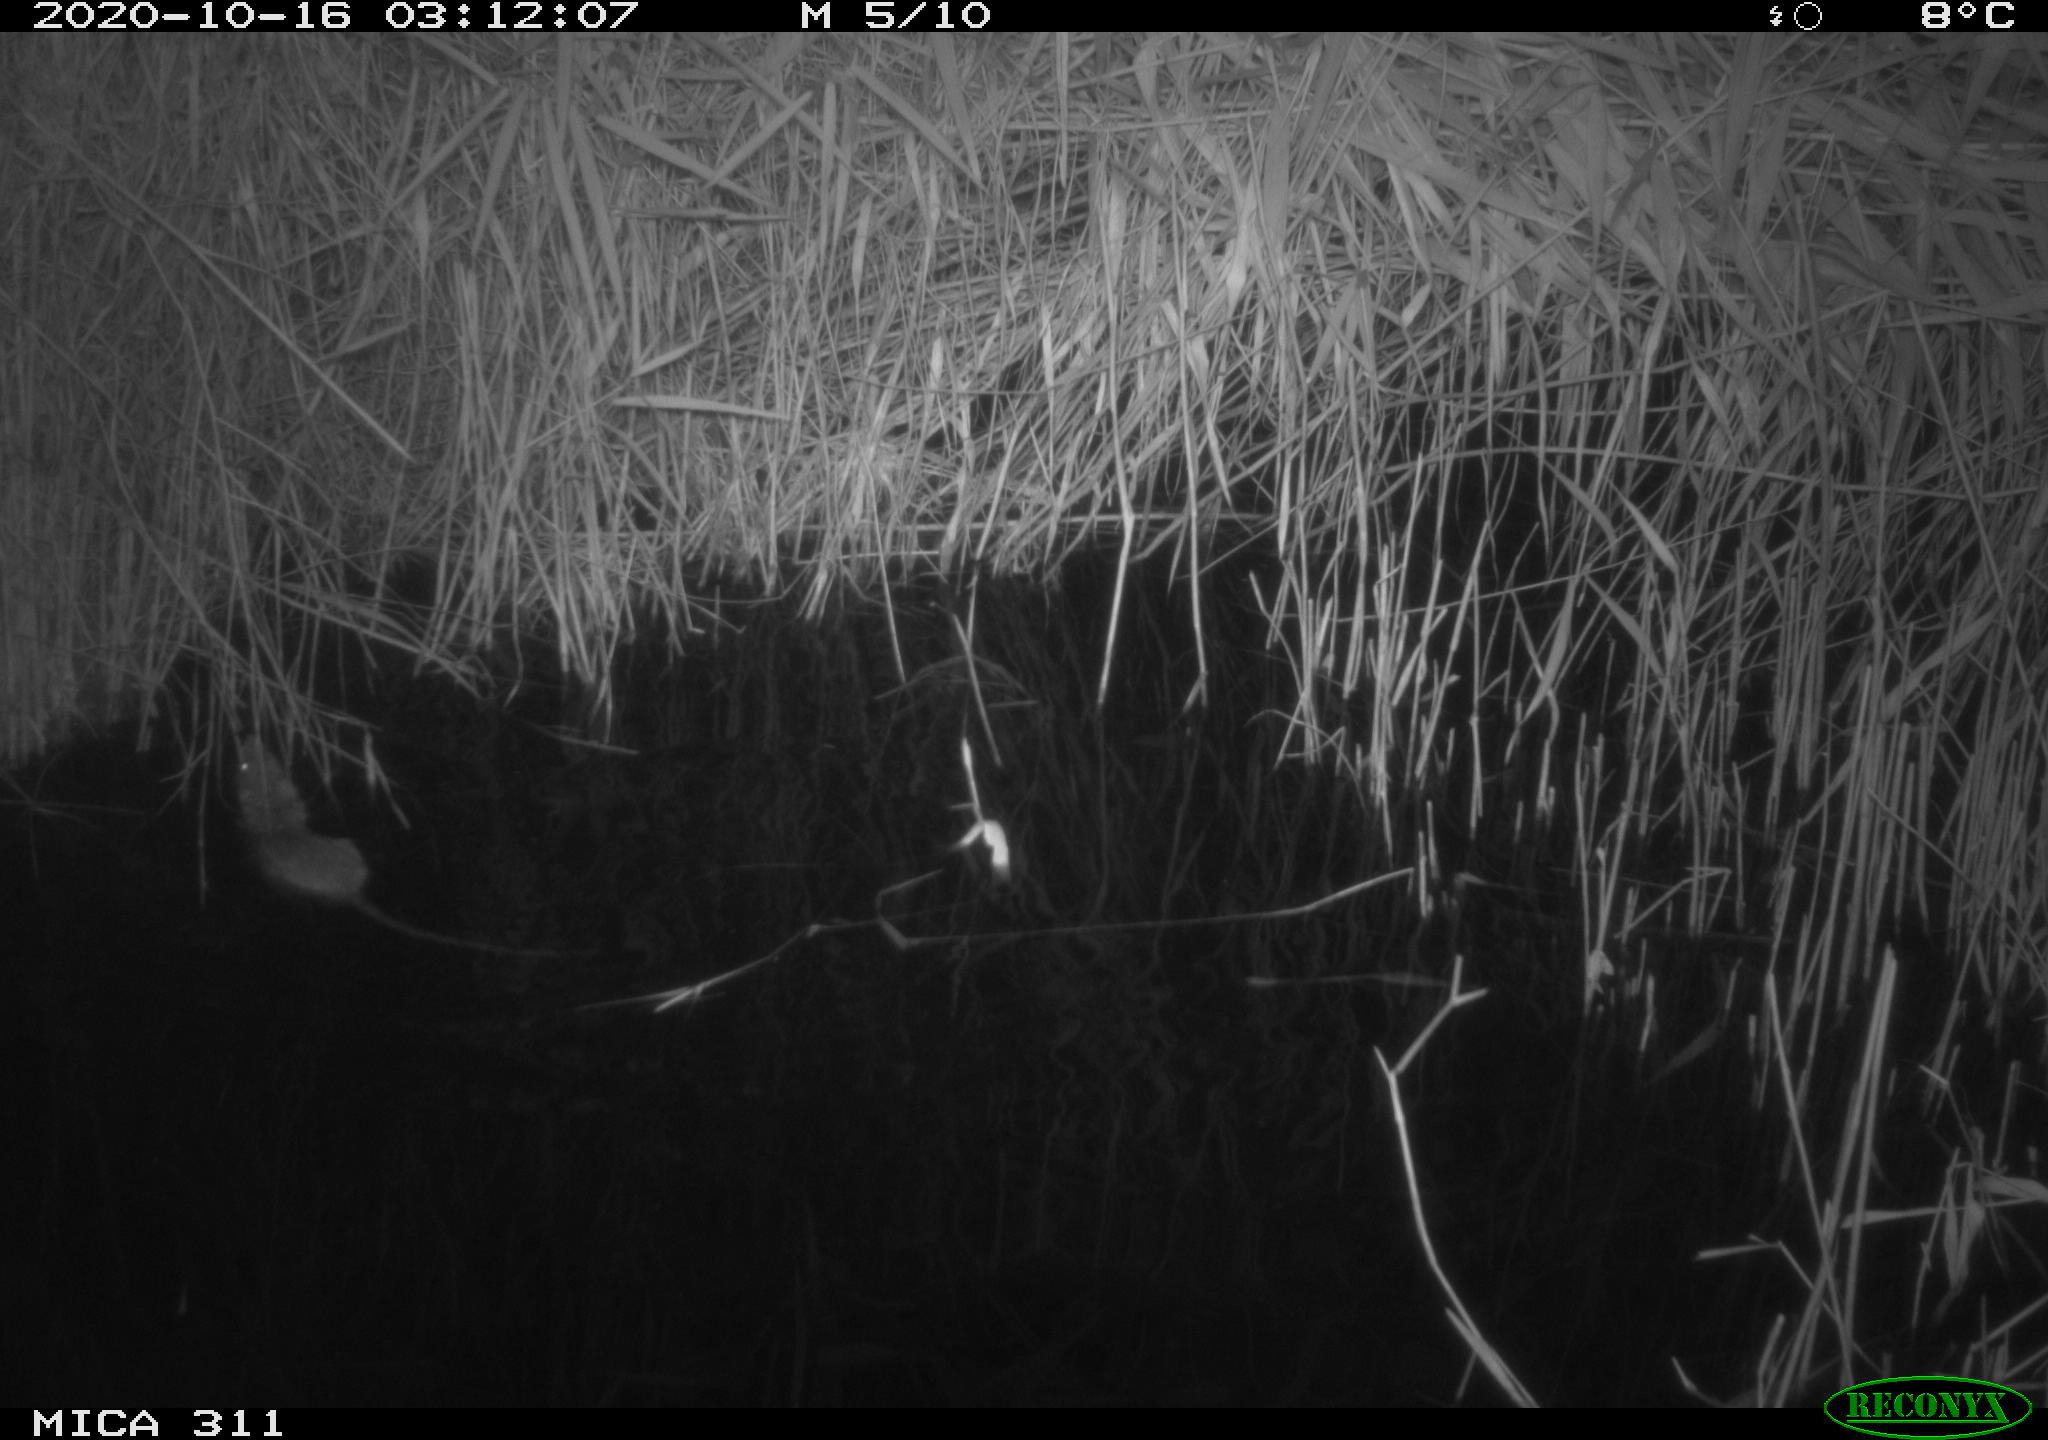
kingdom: Animalia
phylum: Chordata
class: Mammalia
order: Rodentia
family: Muridae
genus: Rattus
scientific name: Rattus norvegicus
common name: Brown rat
